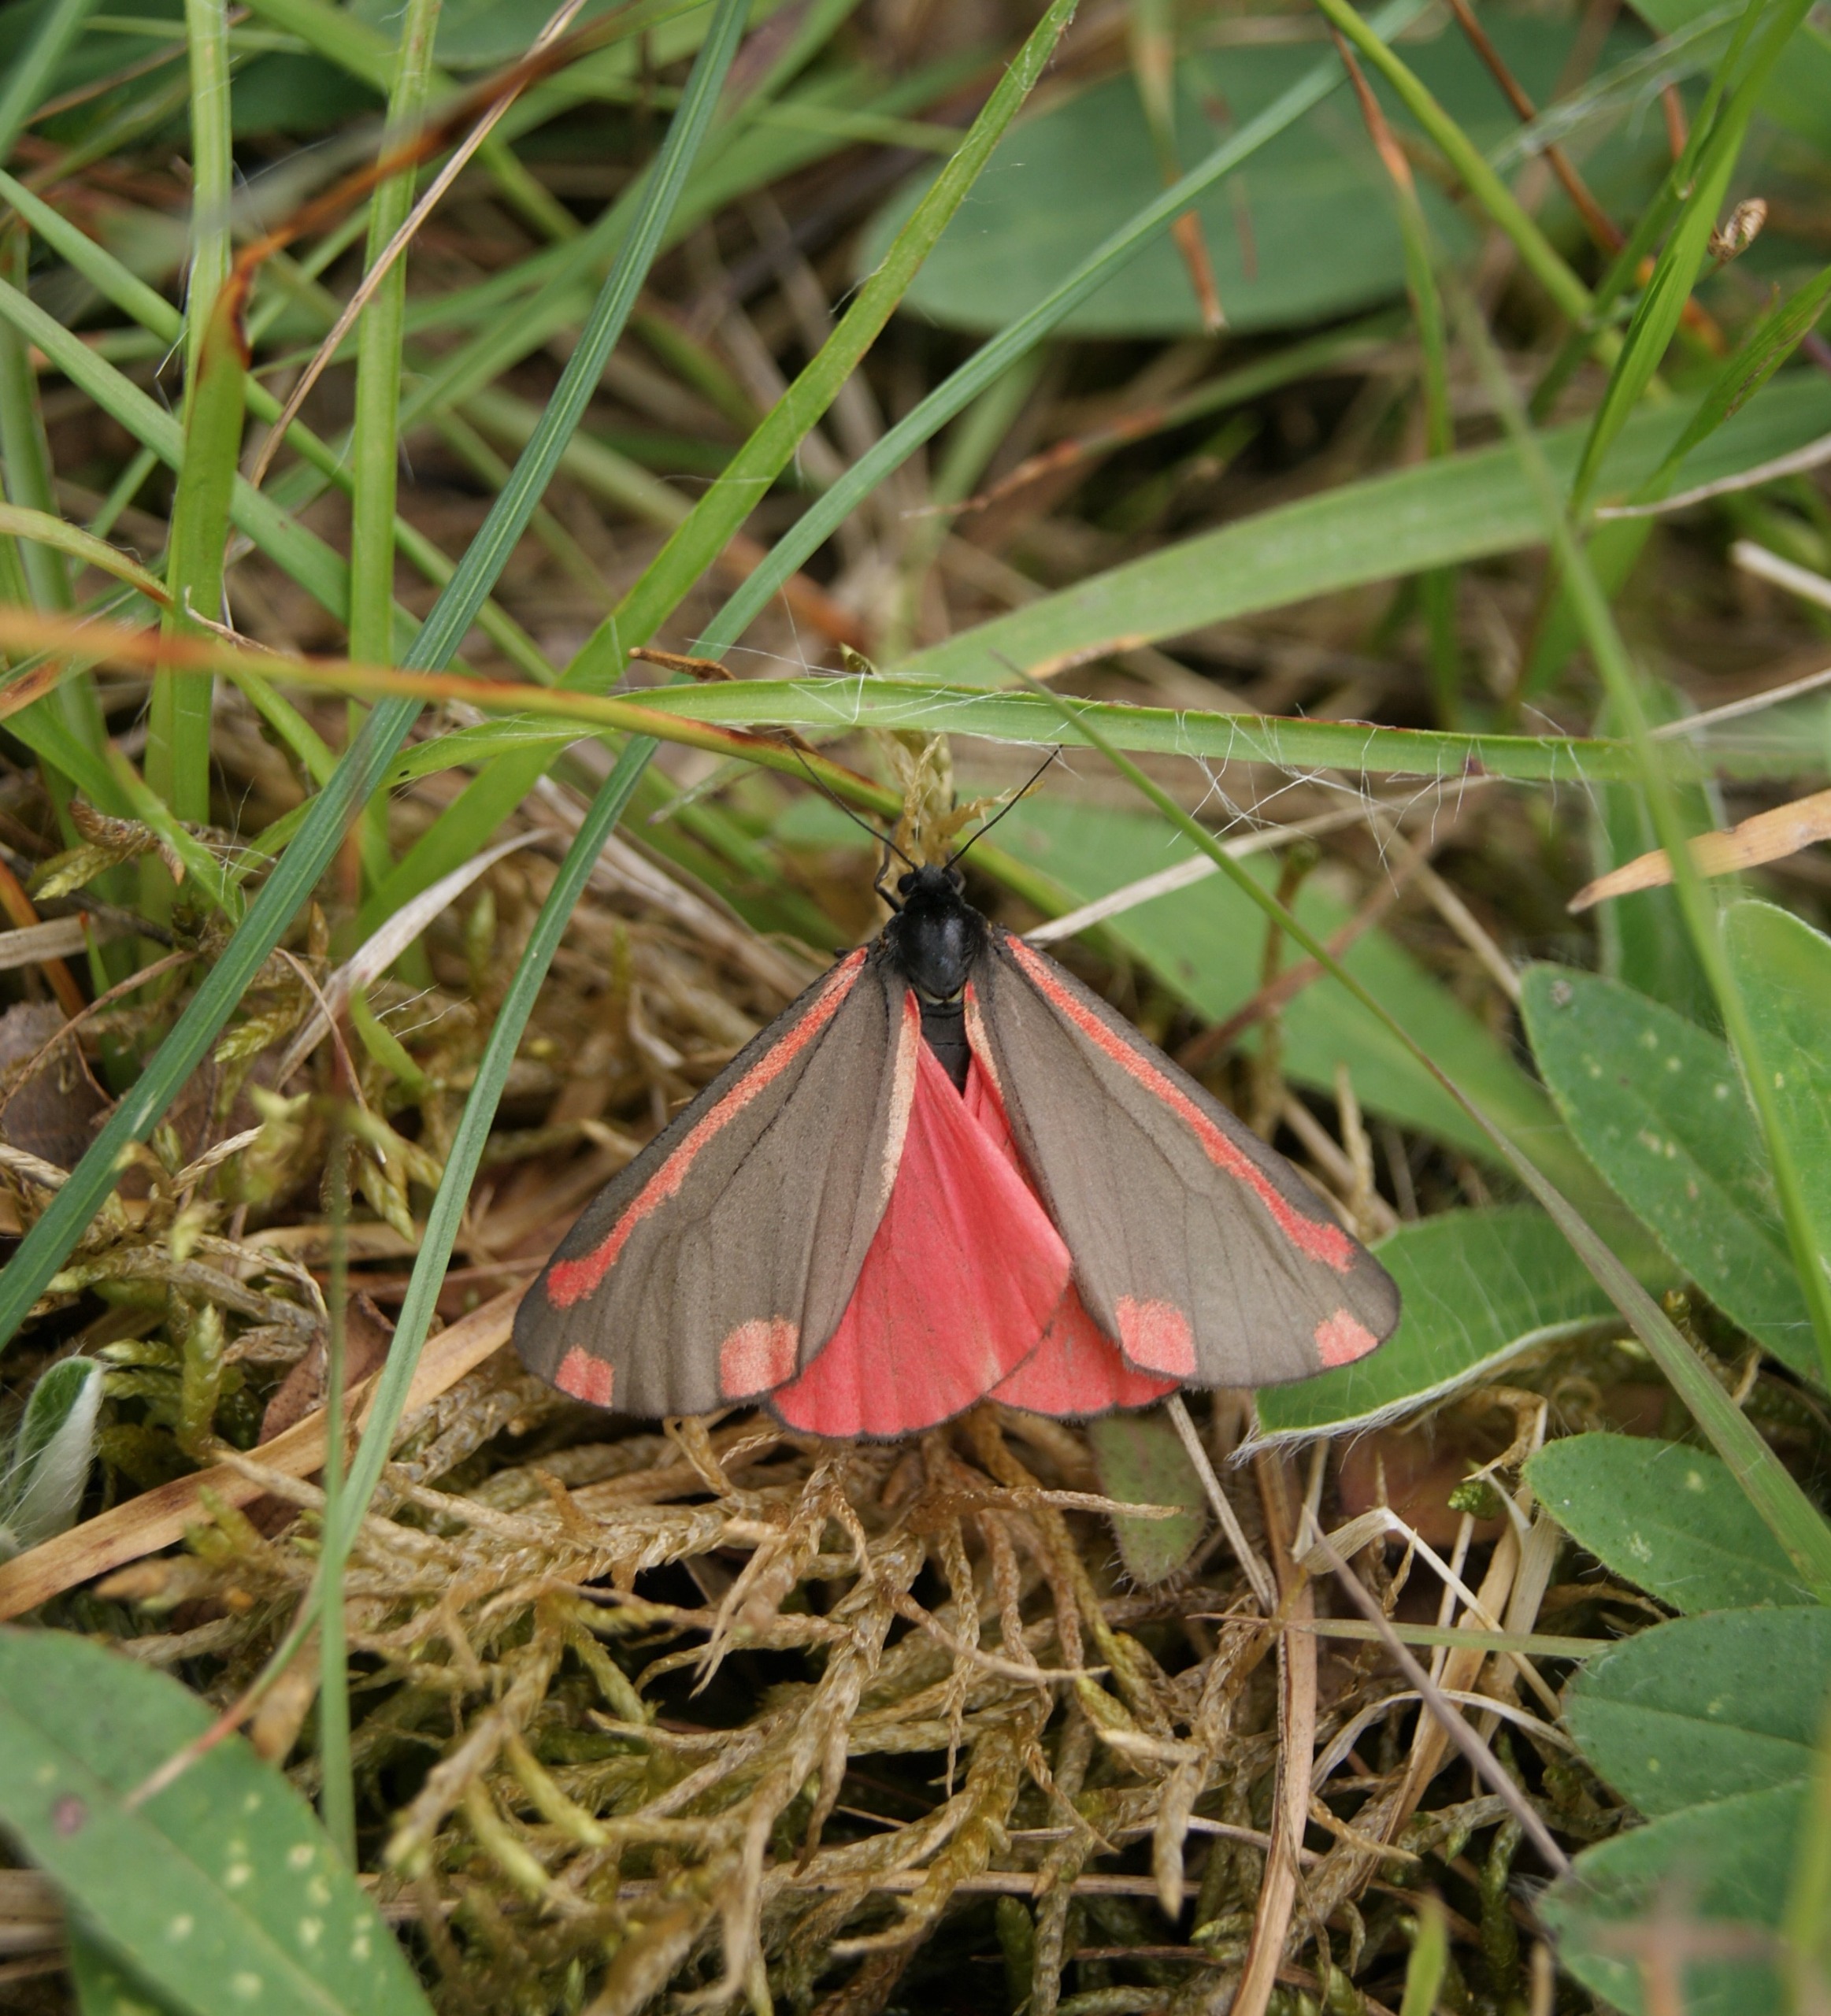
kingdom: Animalia
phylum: Arthropoda
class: Insecta
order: Lepidoptera
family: Erebidae
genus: Tyria
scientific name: Tyria jacobaeae
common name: Blodplet
